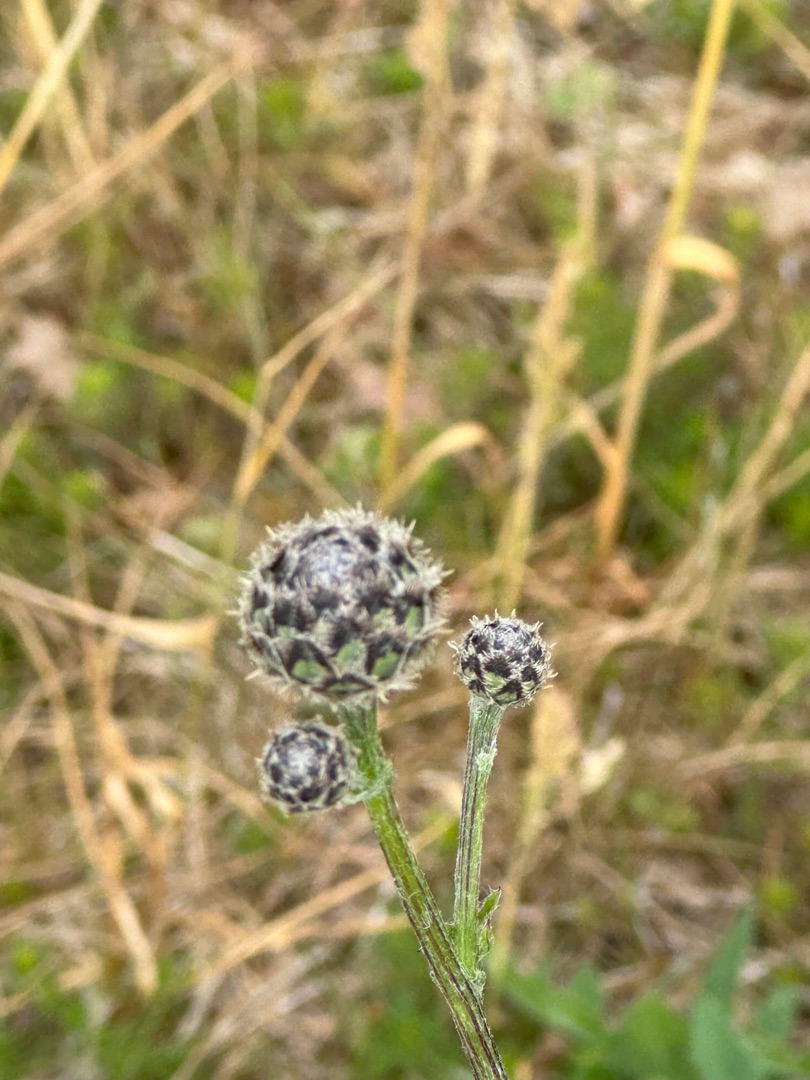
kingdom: Plantae
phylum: Tracheophyta
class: Magnoliopsida
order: Asterales
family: Asteraceae
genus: Centaurea
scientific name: Centaurea scabiosa
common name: Stor knopurt
